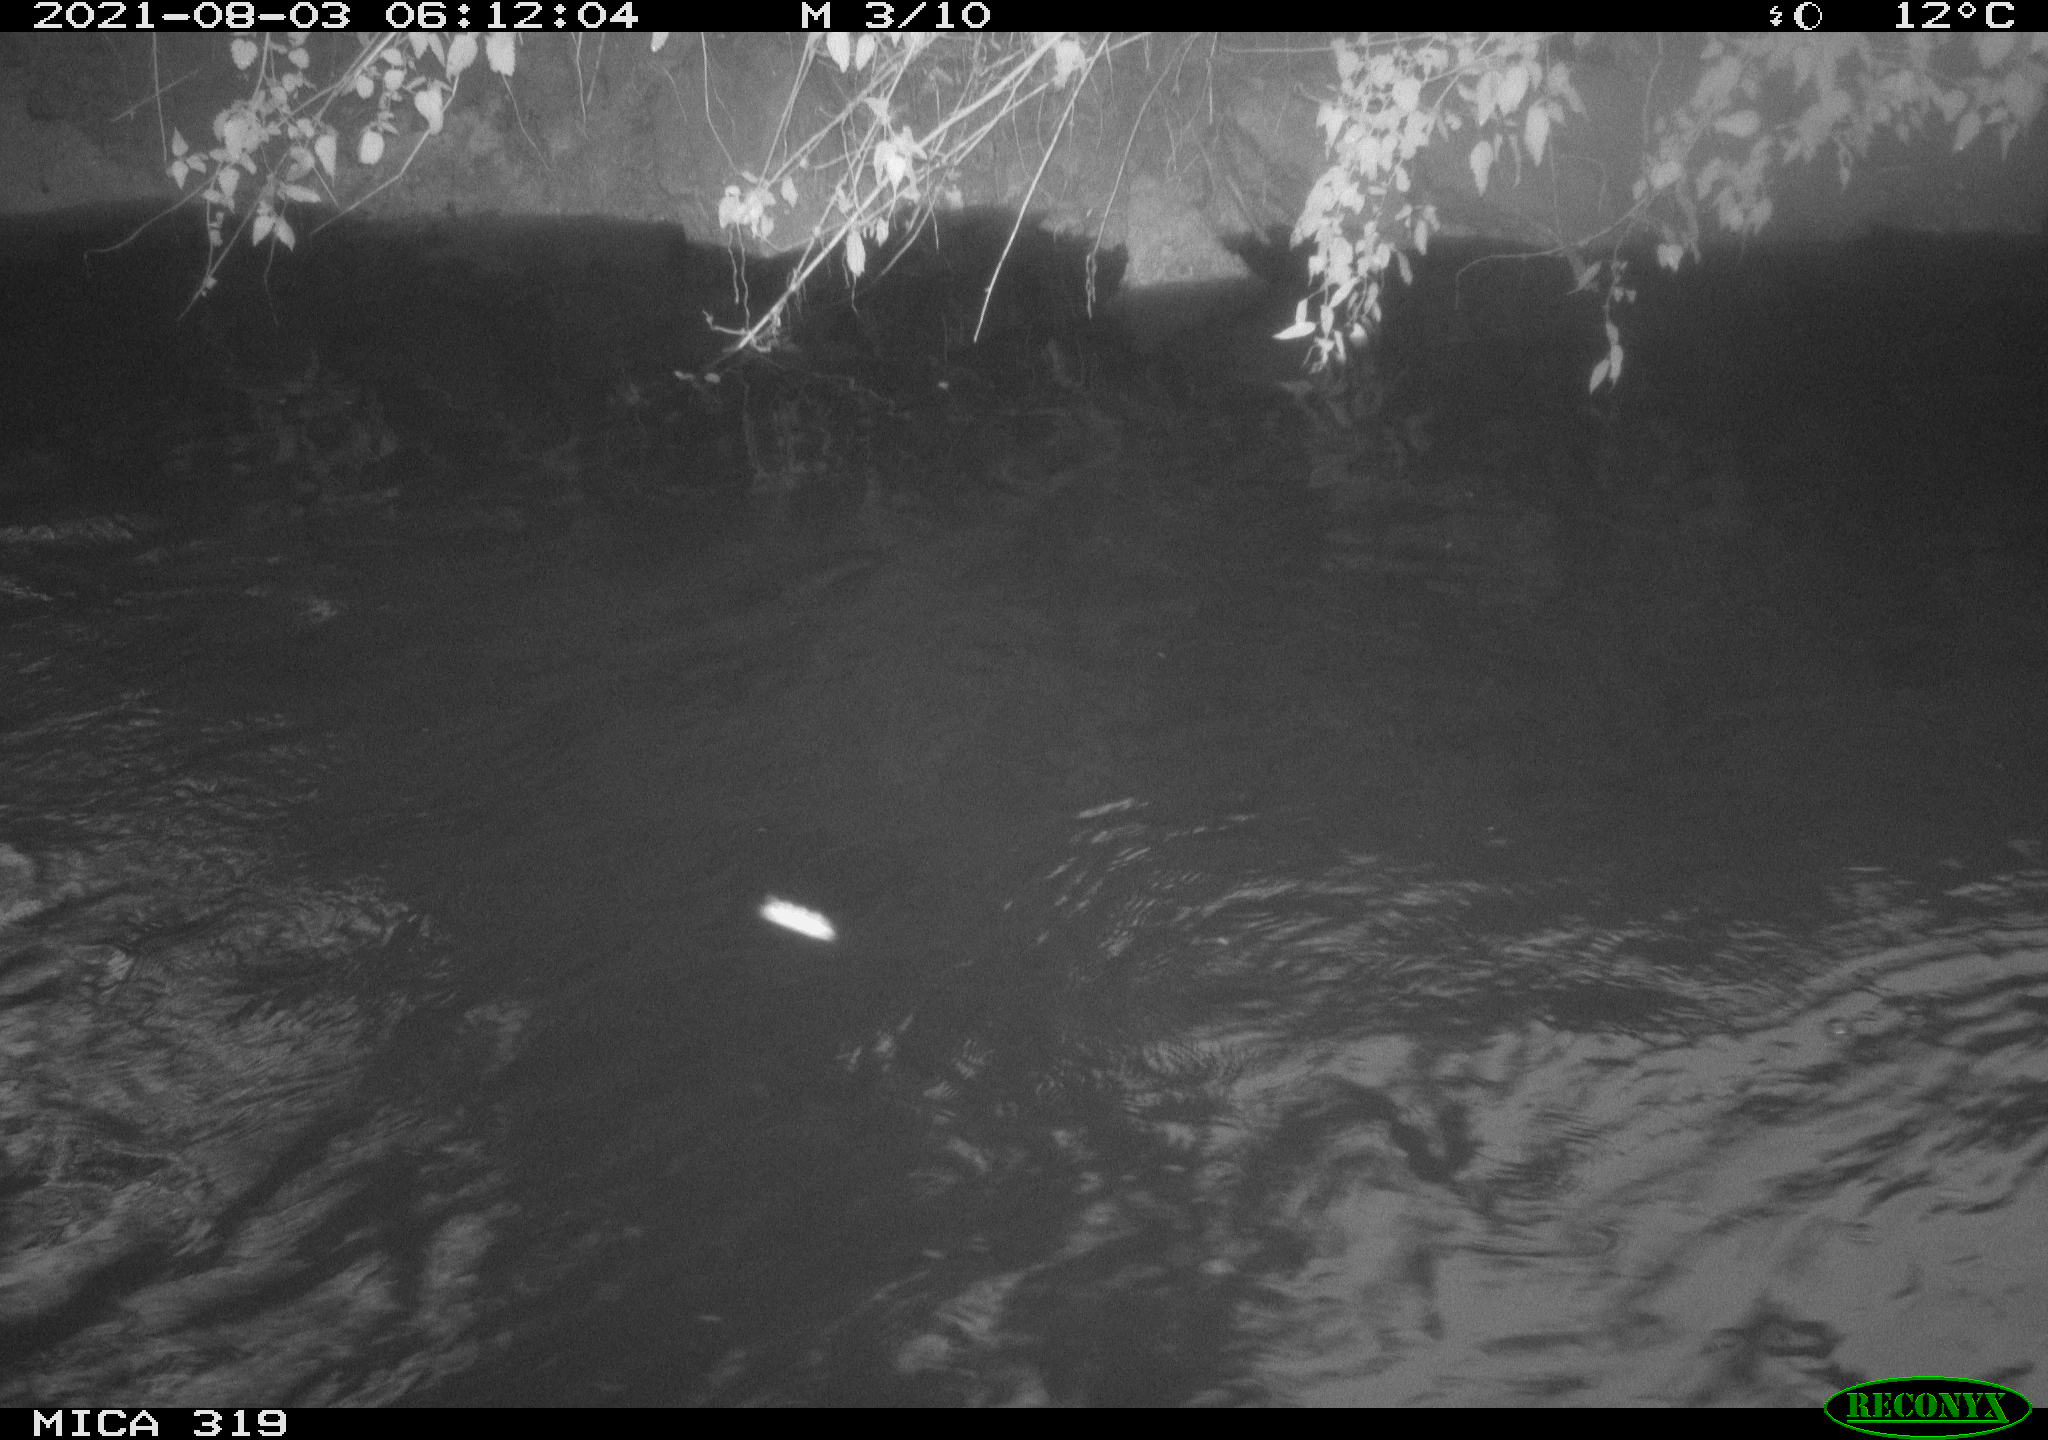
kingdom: Animalia
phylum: Chordata
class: Aves
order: Anseriformes
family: Anatidae
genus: Anas
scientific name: Anas platyrhynchos
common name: Mallard
